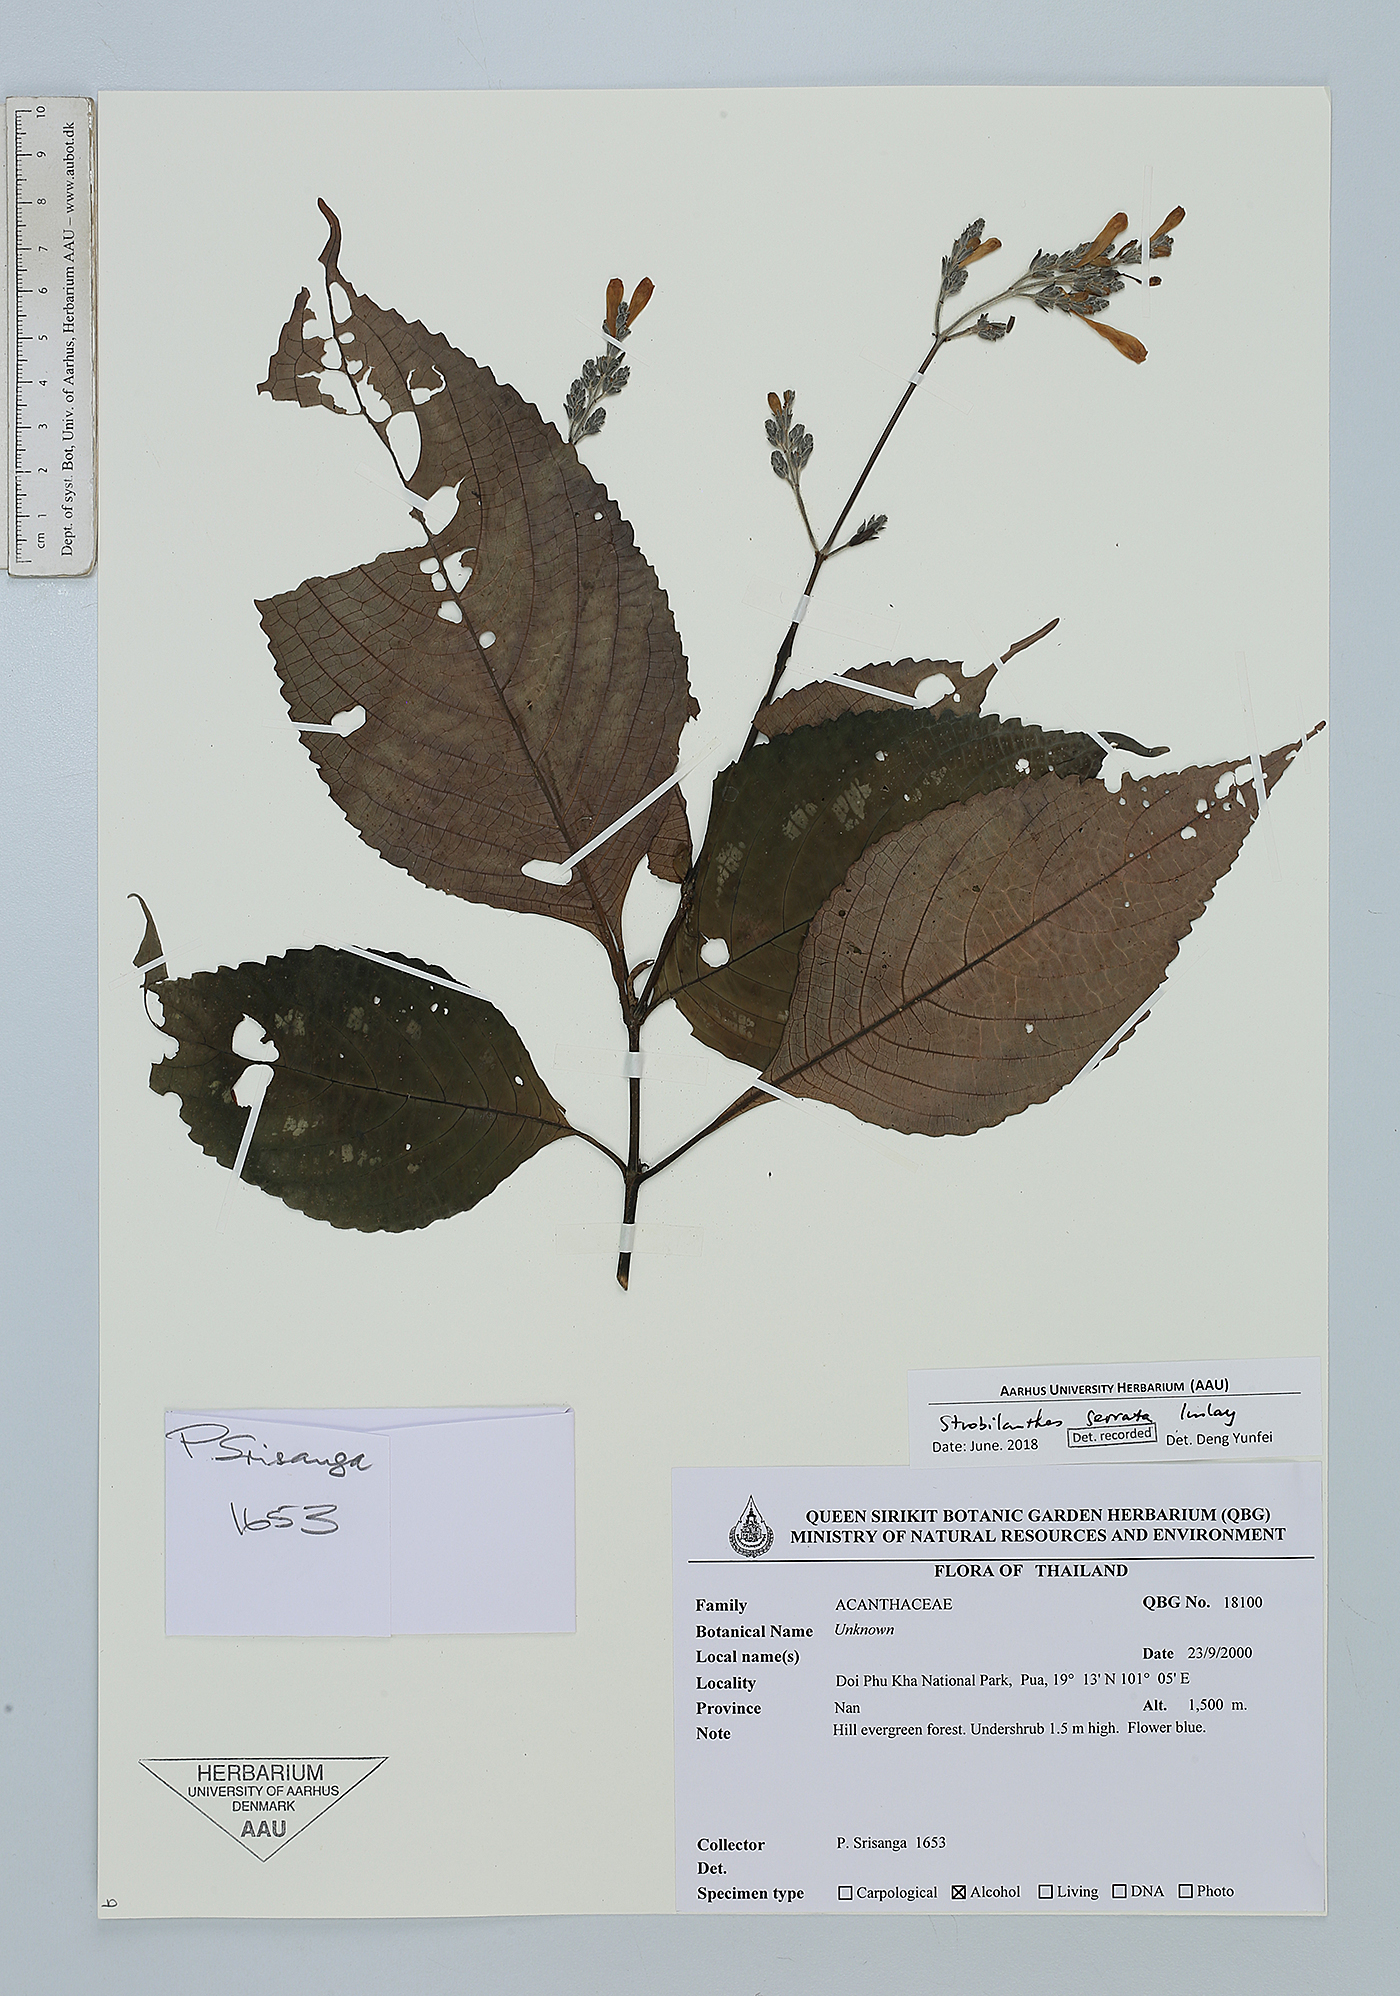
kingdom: Plantae
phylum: Tracheophyta
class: Magnoliopsida
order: Lamiales
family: Acanthaceae
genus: Strobilanthes
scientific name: Strobilanthes serrata
